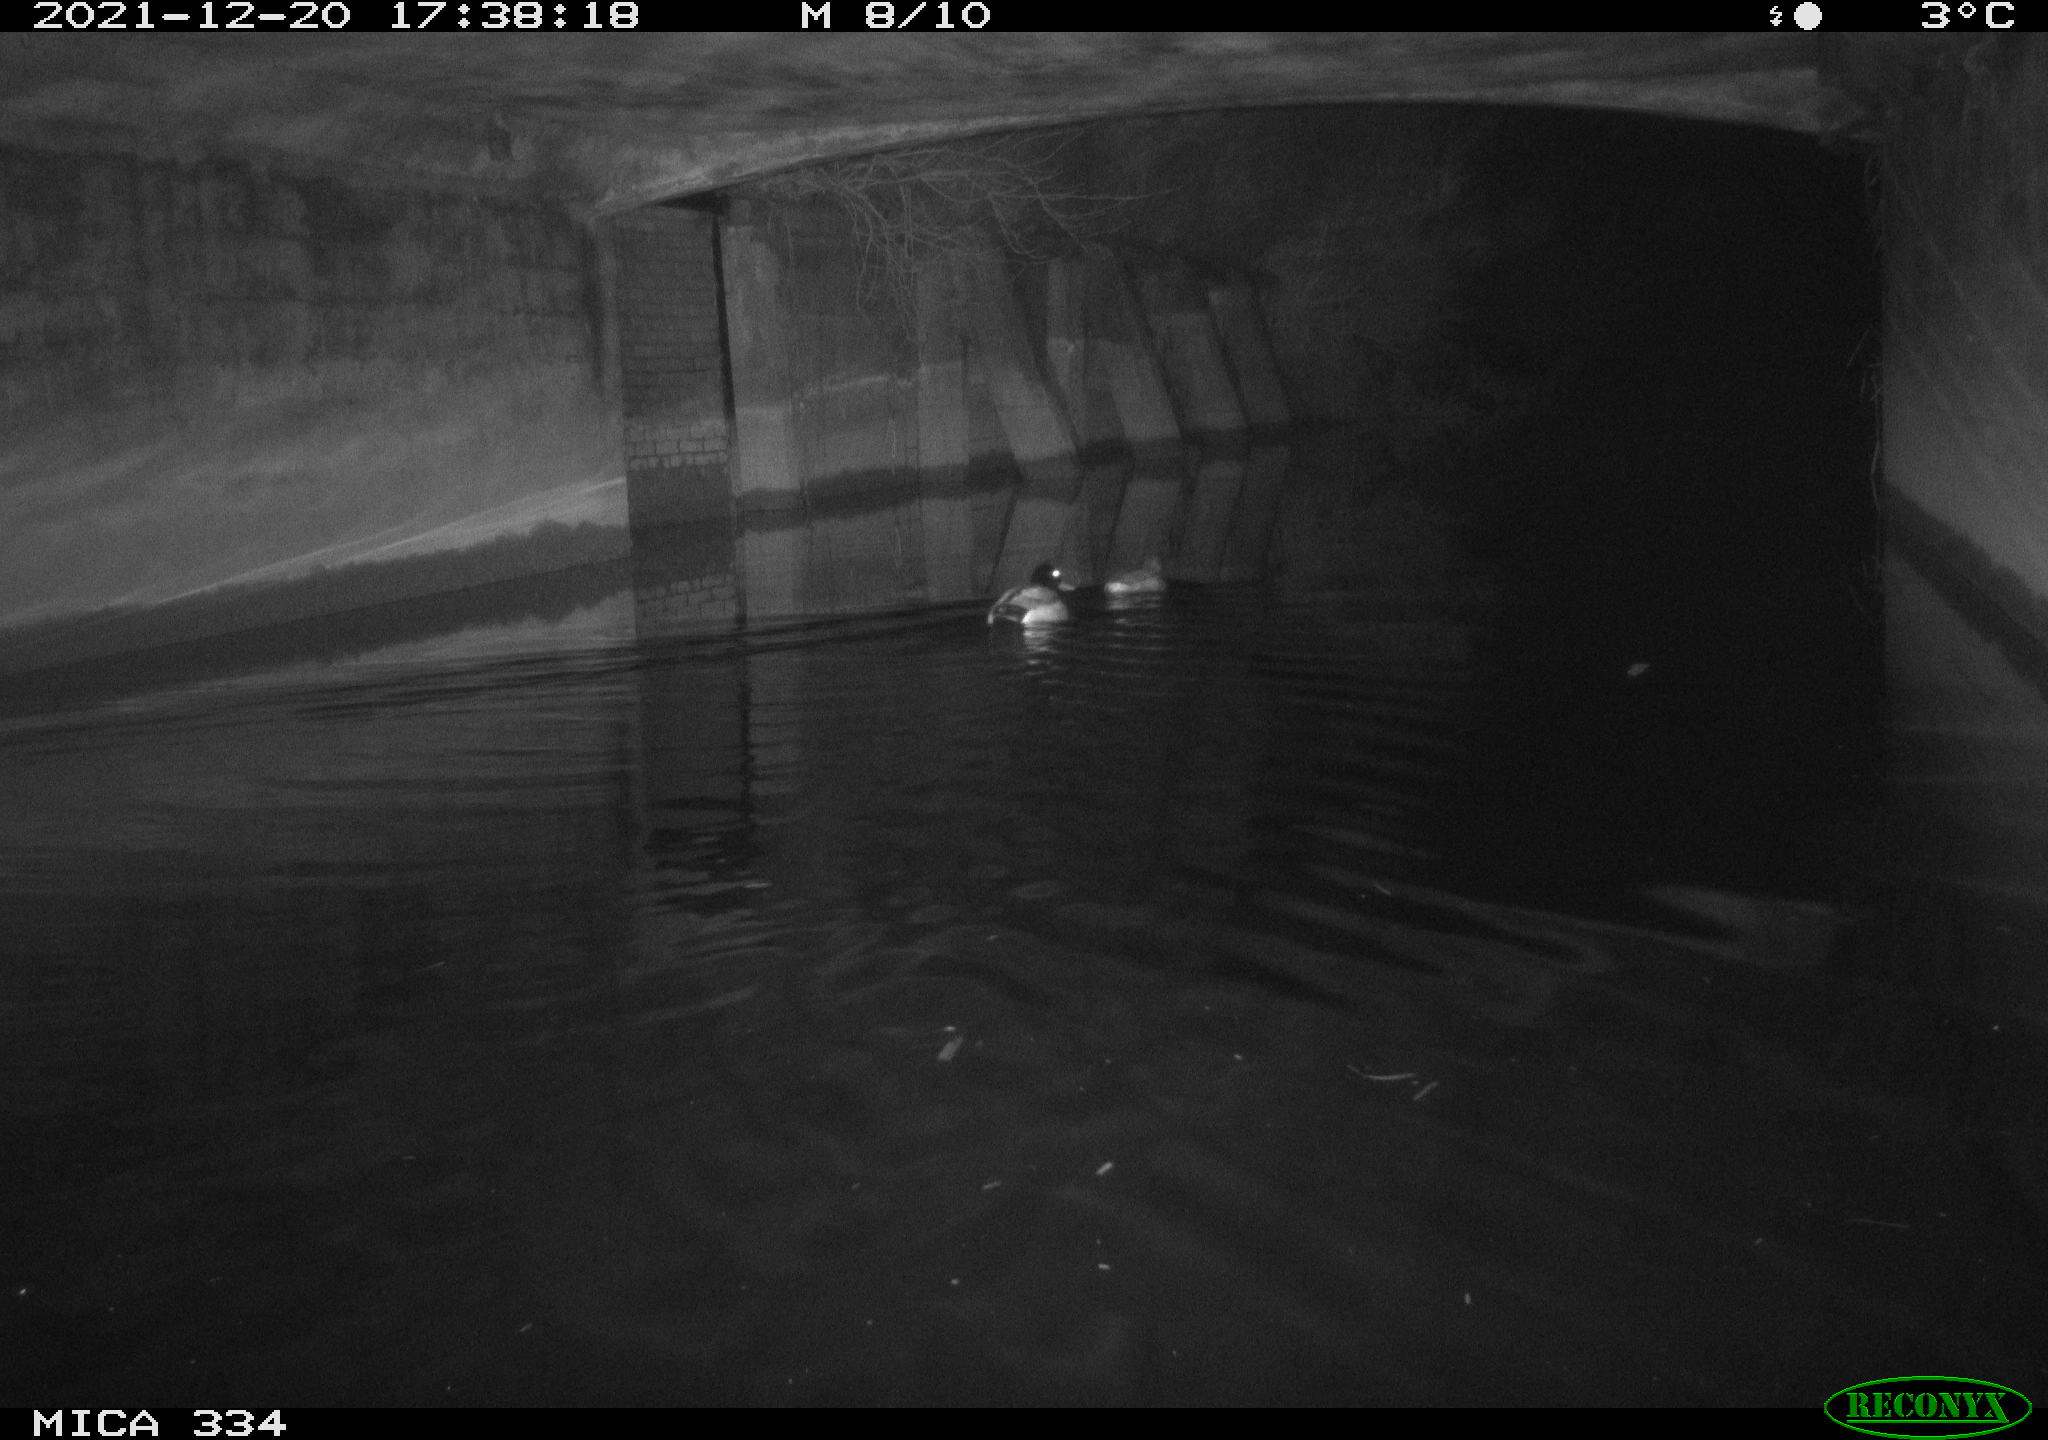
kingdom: Animalia
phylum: Chordata
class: Aves
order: Anseriformes
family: Anatidae
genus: Anas
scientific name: Anas platyrhynchos
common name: Mallard
